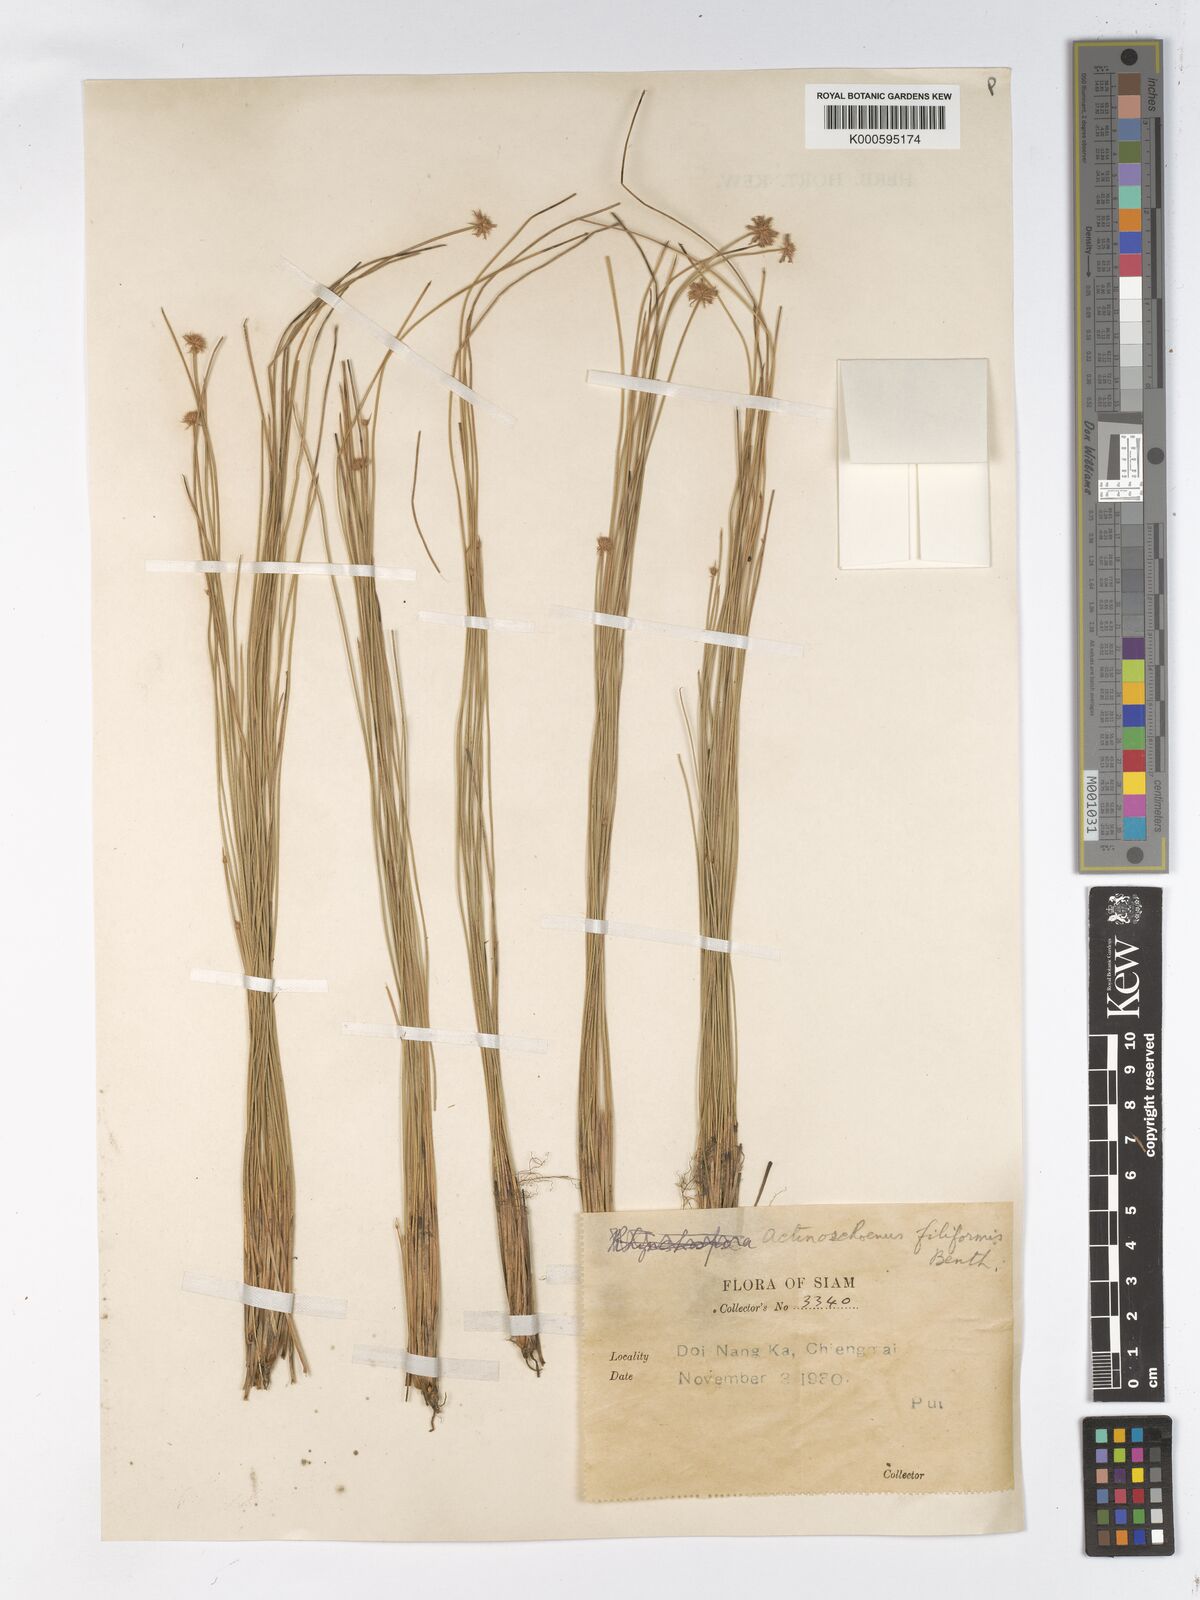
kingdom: Plantae
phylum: Tracheophyta
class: Liliopsida
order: Poales
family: Cyperaceae
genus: Actinoschoenus
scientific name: Actinoschoenus aphyllus
